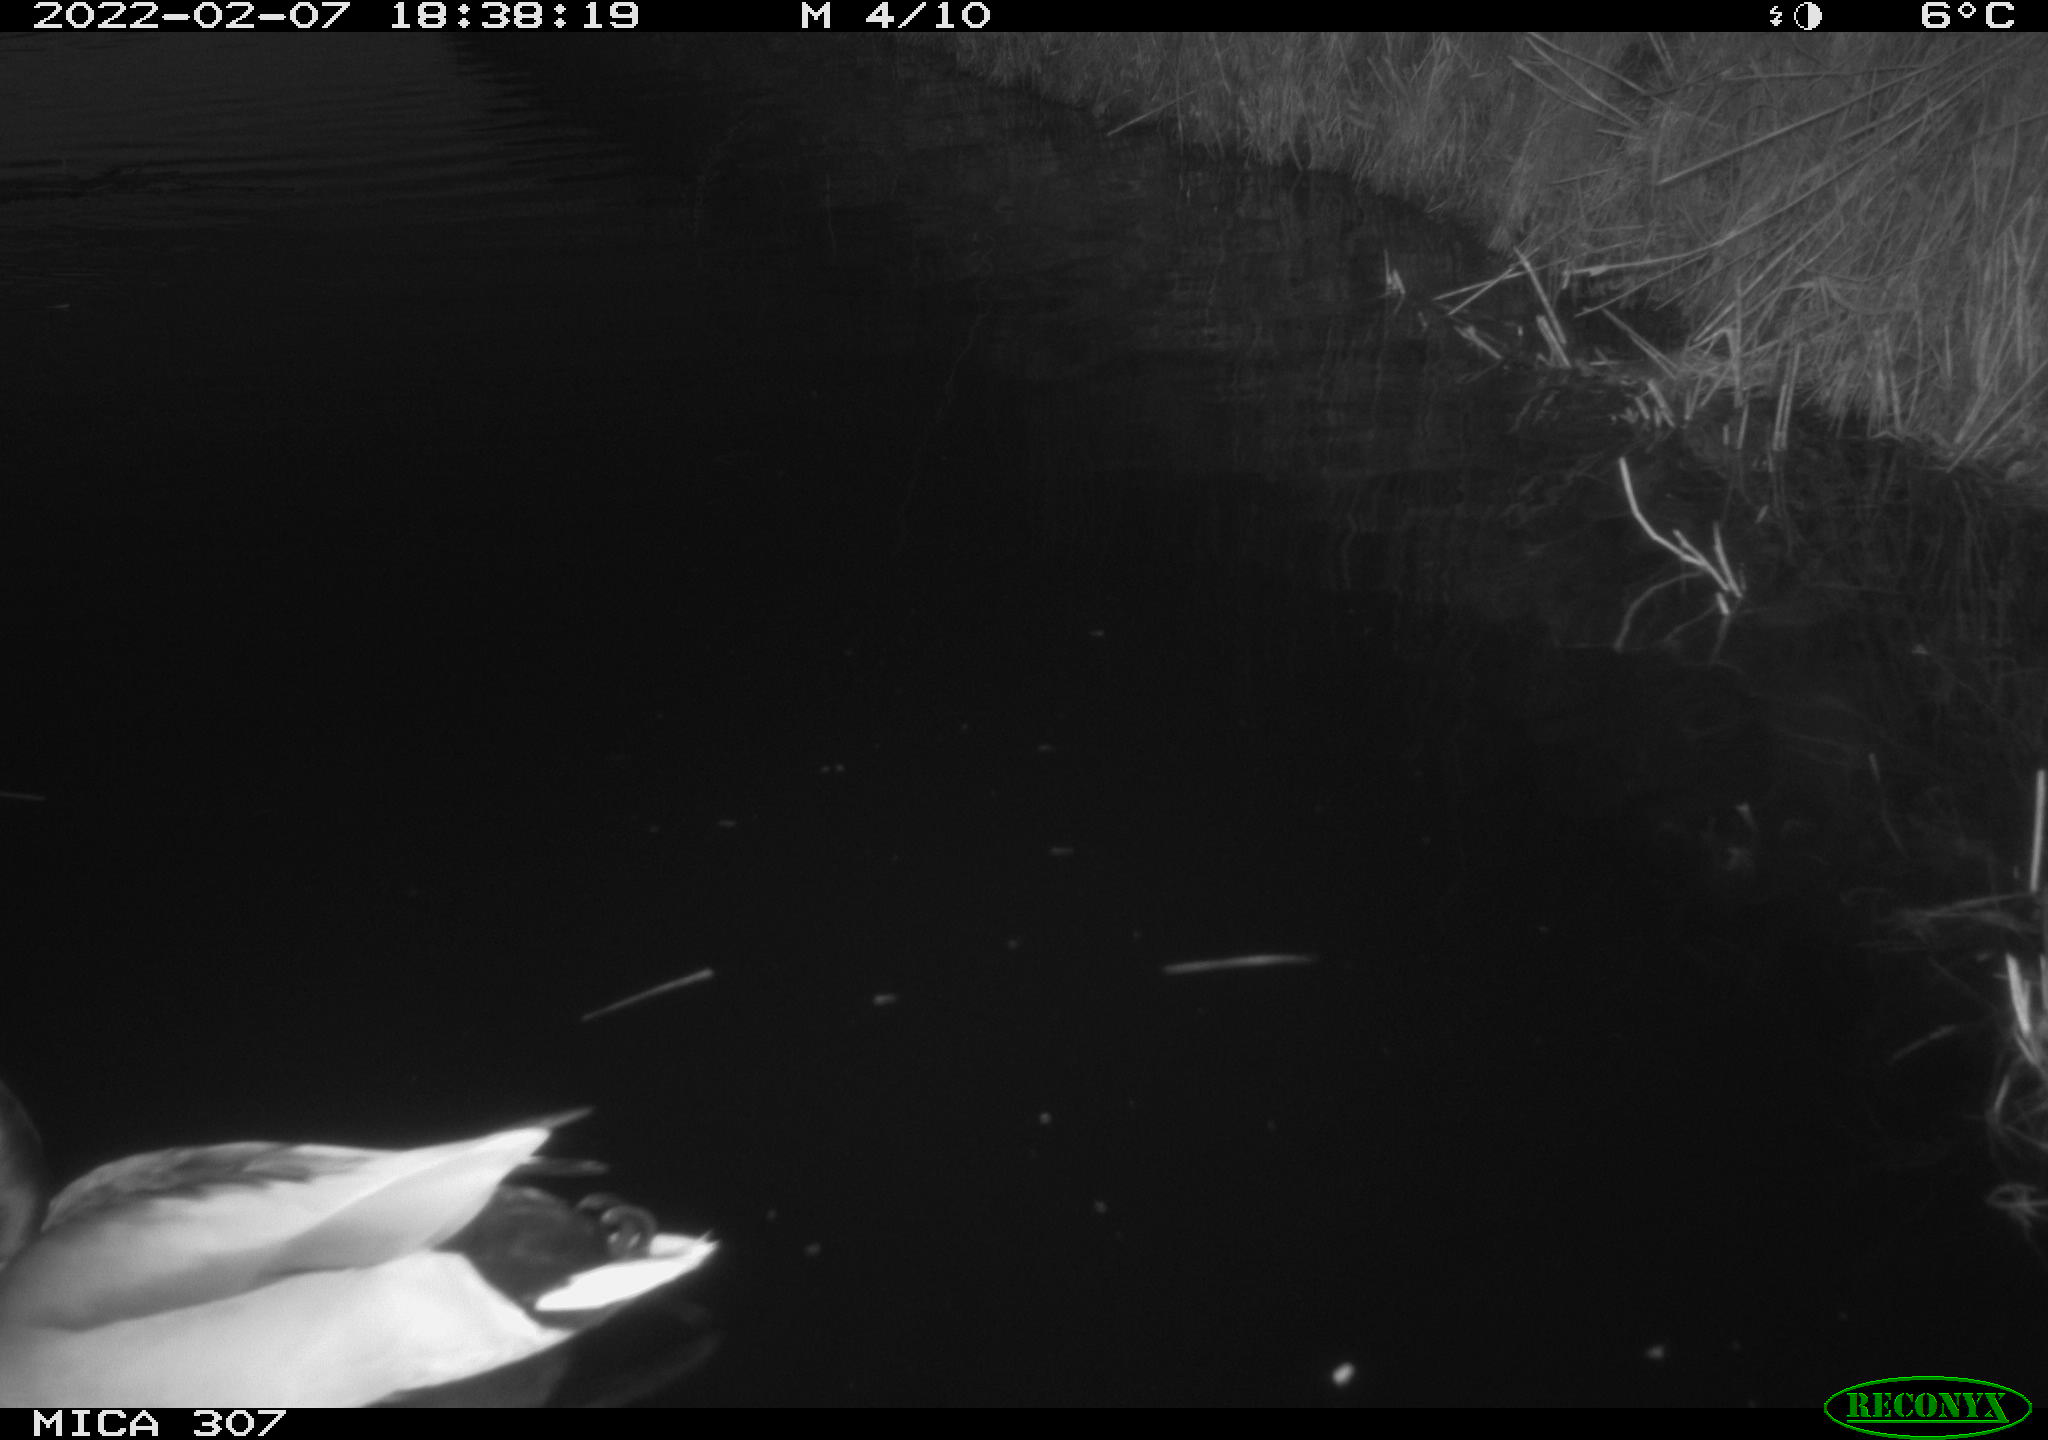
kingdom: Animalia
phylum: Chordata
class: Aves
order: Anseriformes
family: Anatidae
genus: Anas
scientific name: Anas platyrhynchos
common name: Mallard
